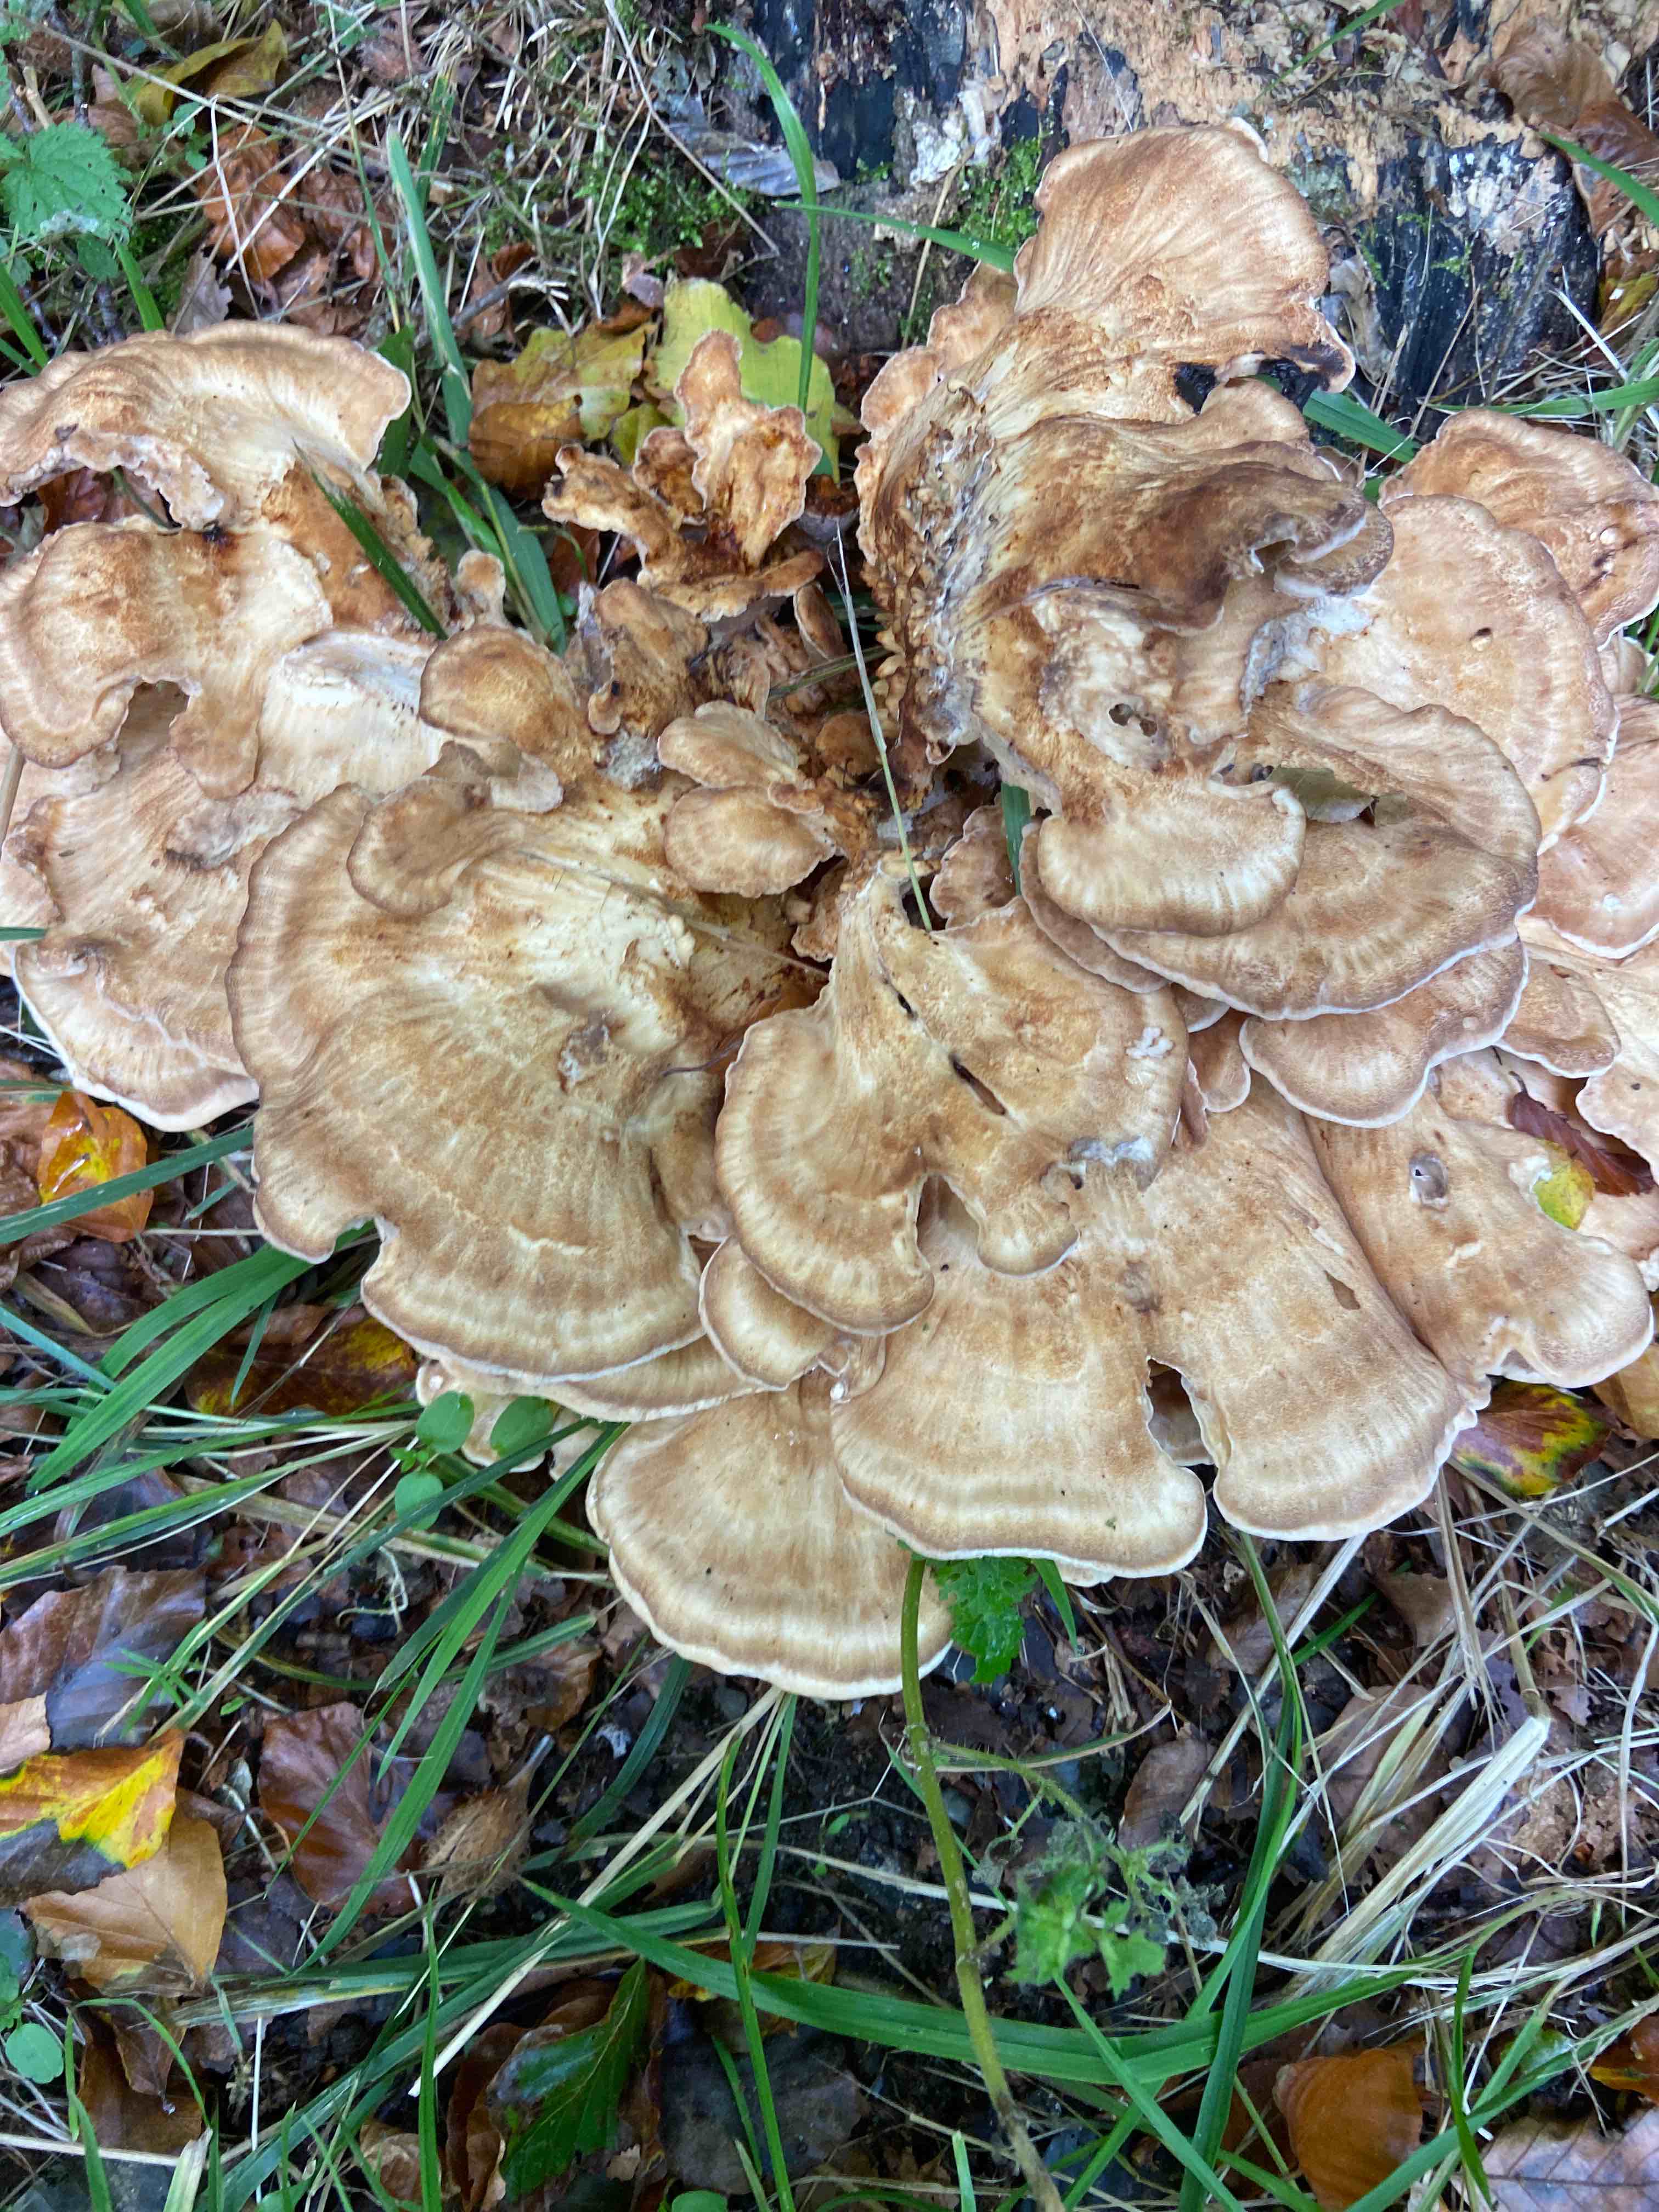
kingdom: Fungi
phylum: Basidiomycota
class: Agaricomycetes
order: Polyporales
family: Meripilaceae
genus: Meripilus
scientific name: Meripilus giganteus
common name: kæmpeporesvamp
